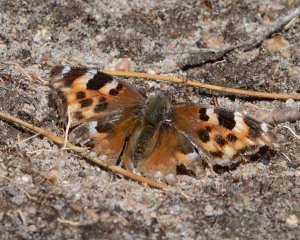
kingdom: Animalia
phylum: Arthropoda
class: Insecta
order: Lepidoptera
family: Nymphalidae
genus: Polygonia
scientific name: Polygonia vaualbum
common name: Compton Tortoiseshell
